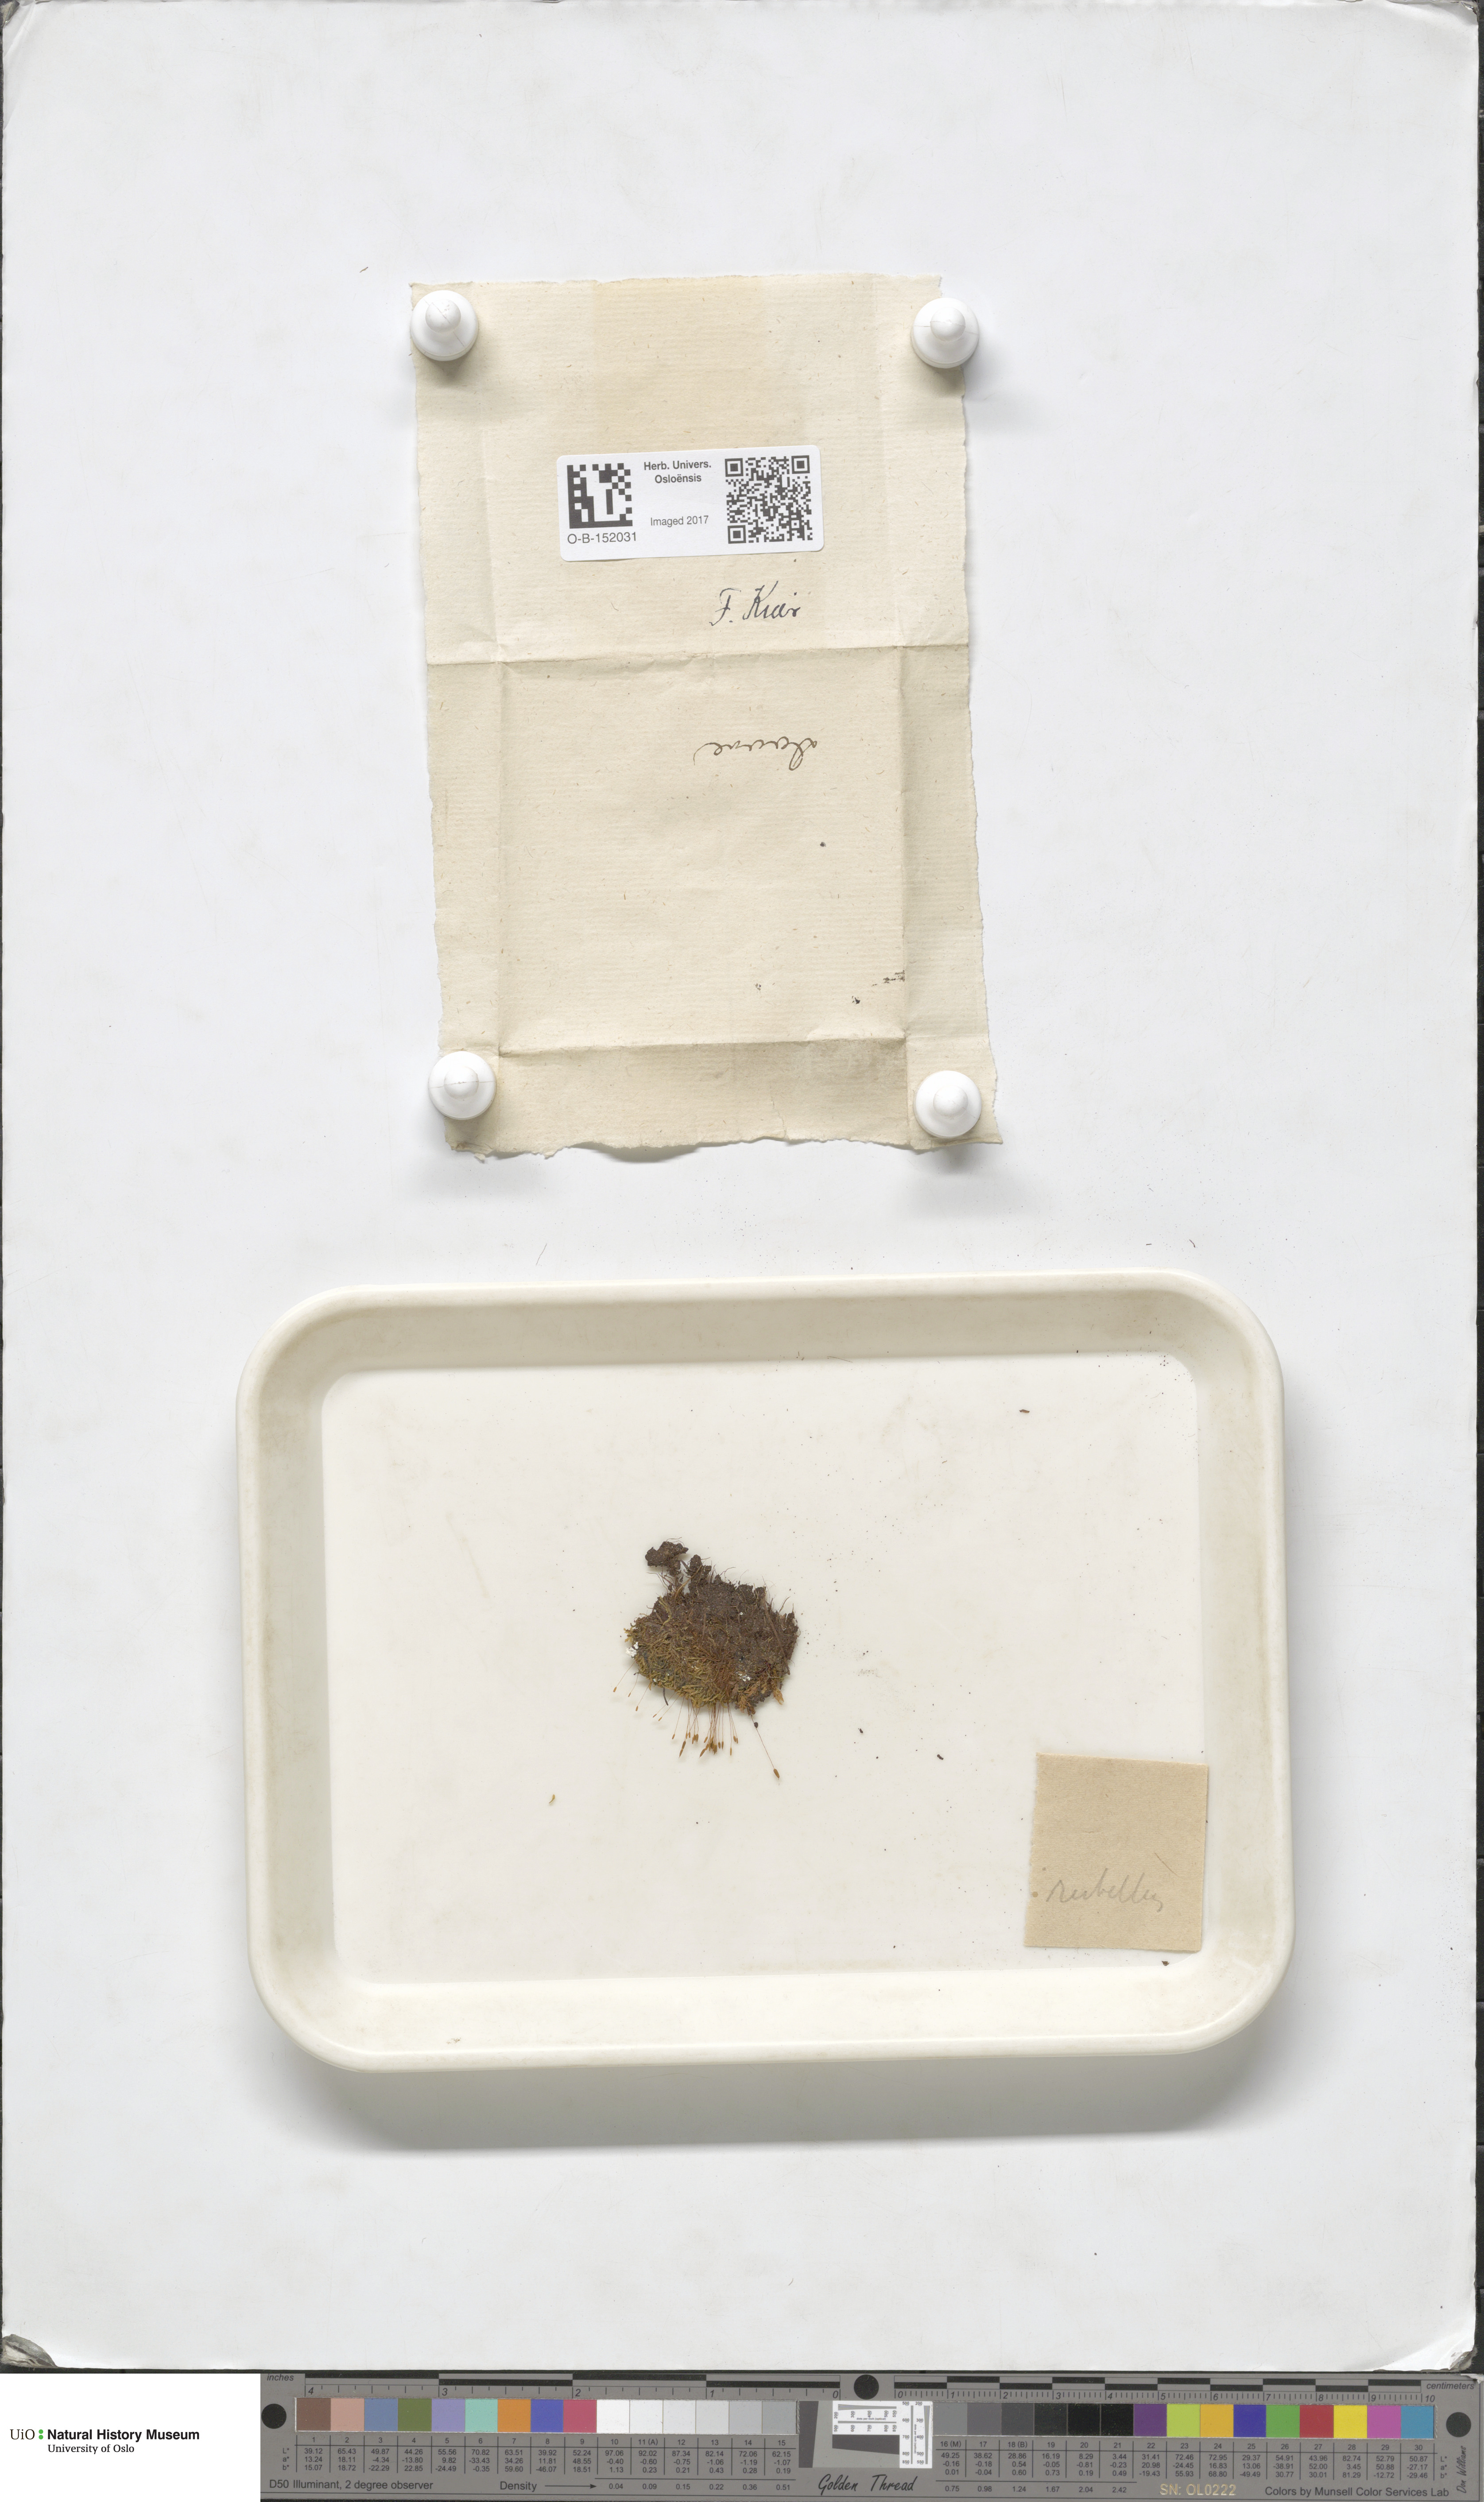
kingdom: Plantae
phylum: Bryophyta
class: Bryopsida
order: Pottiales
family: Pottiaceae
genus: Bryoerythrophyllum
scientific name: Bryoerythrophyllum recurvirostrum
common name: Red beard moss
